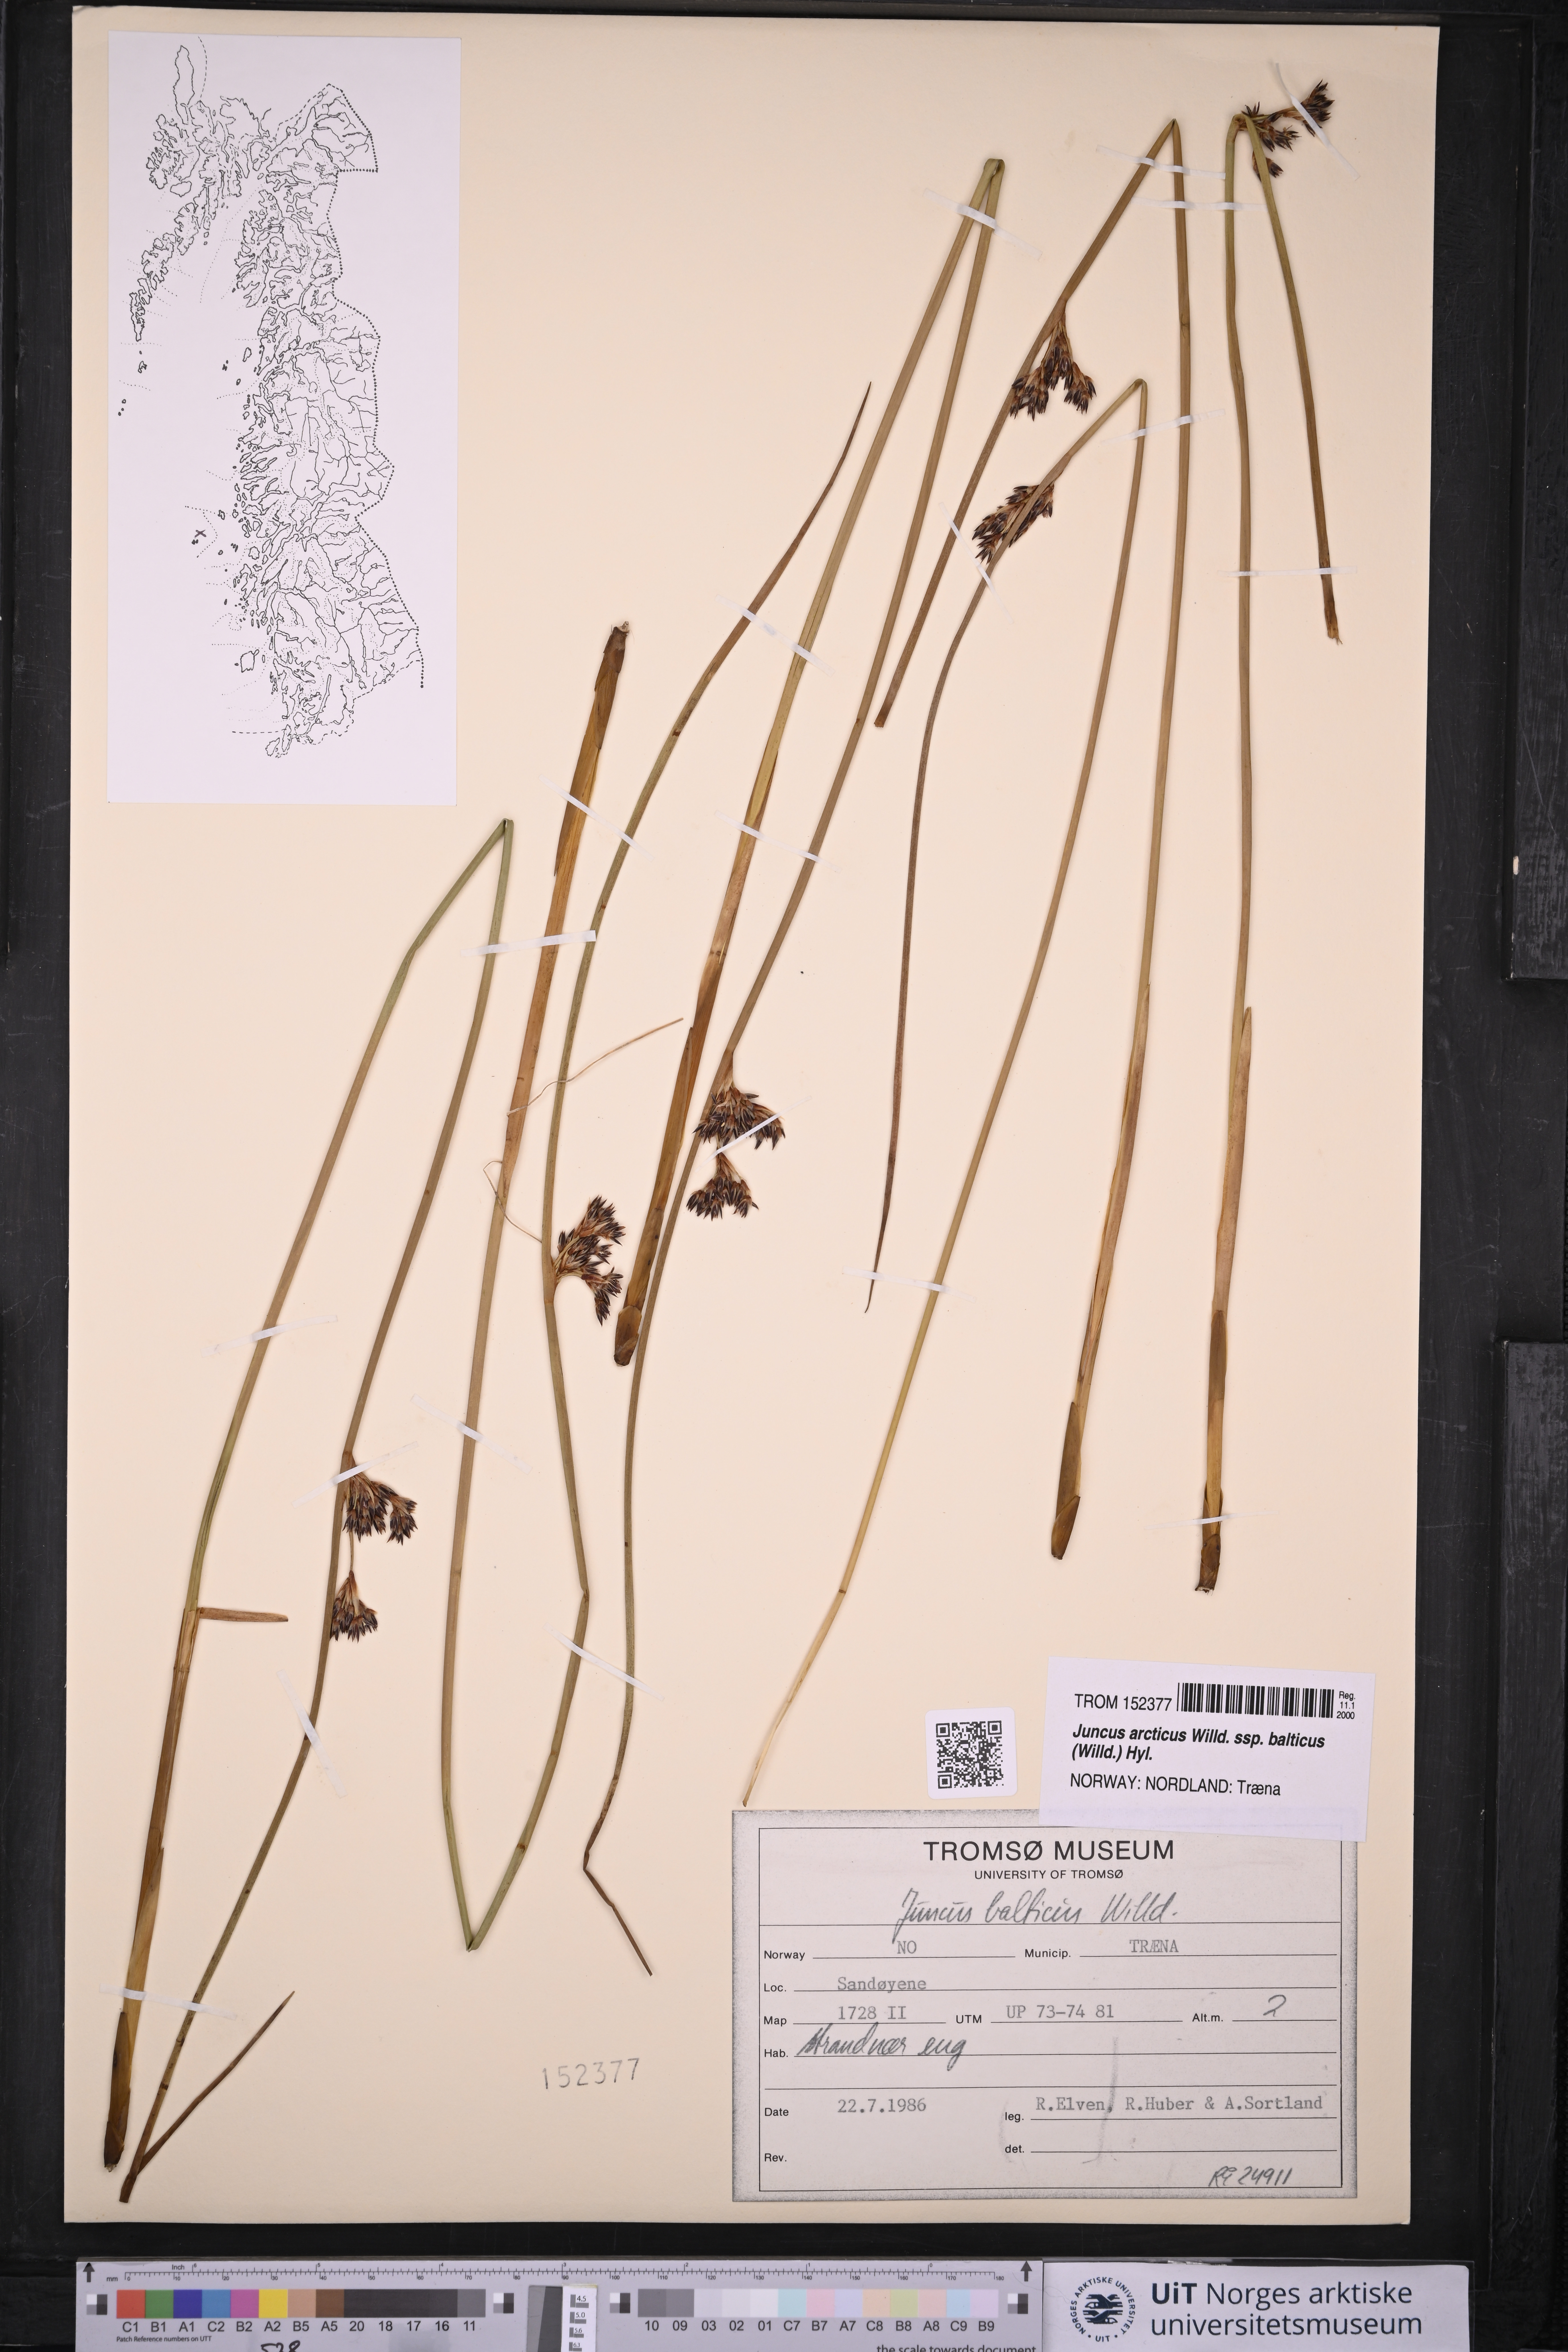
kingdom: Plantae
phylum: Tracheophyta
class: Liliopsida
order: Poales
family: Juncaceae
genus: Juncus
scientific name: Juncus balticus
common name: Baltic rush
